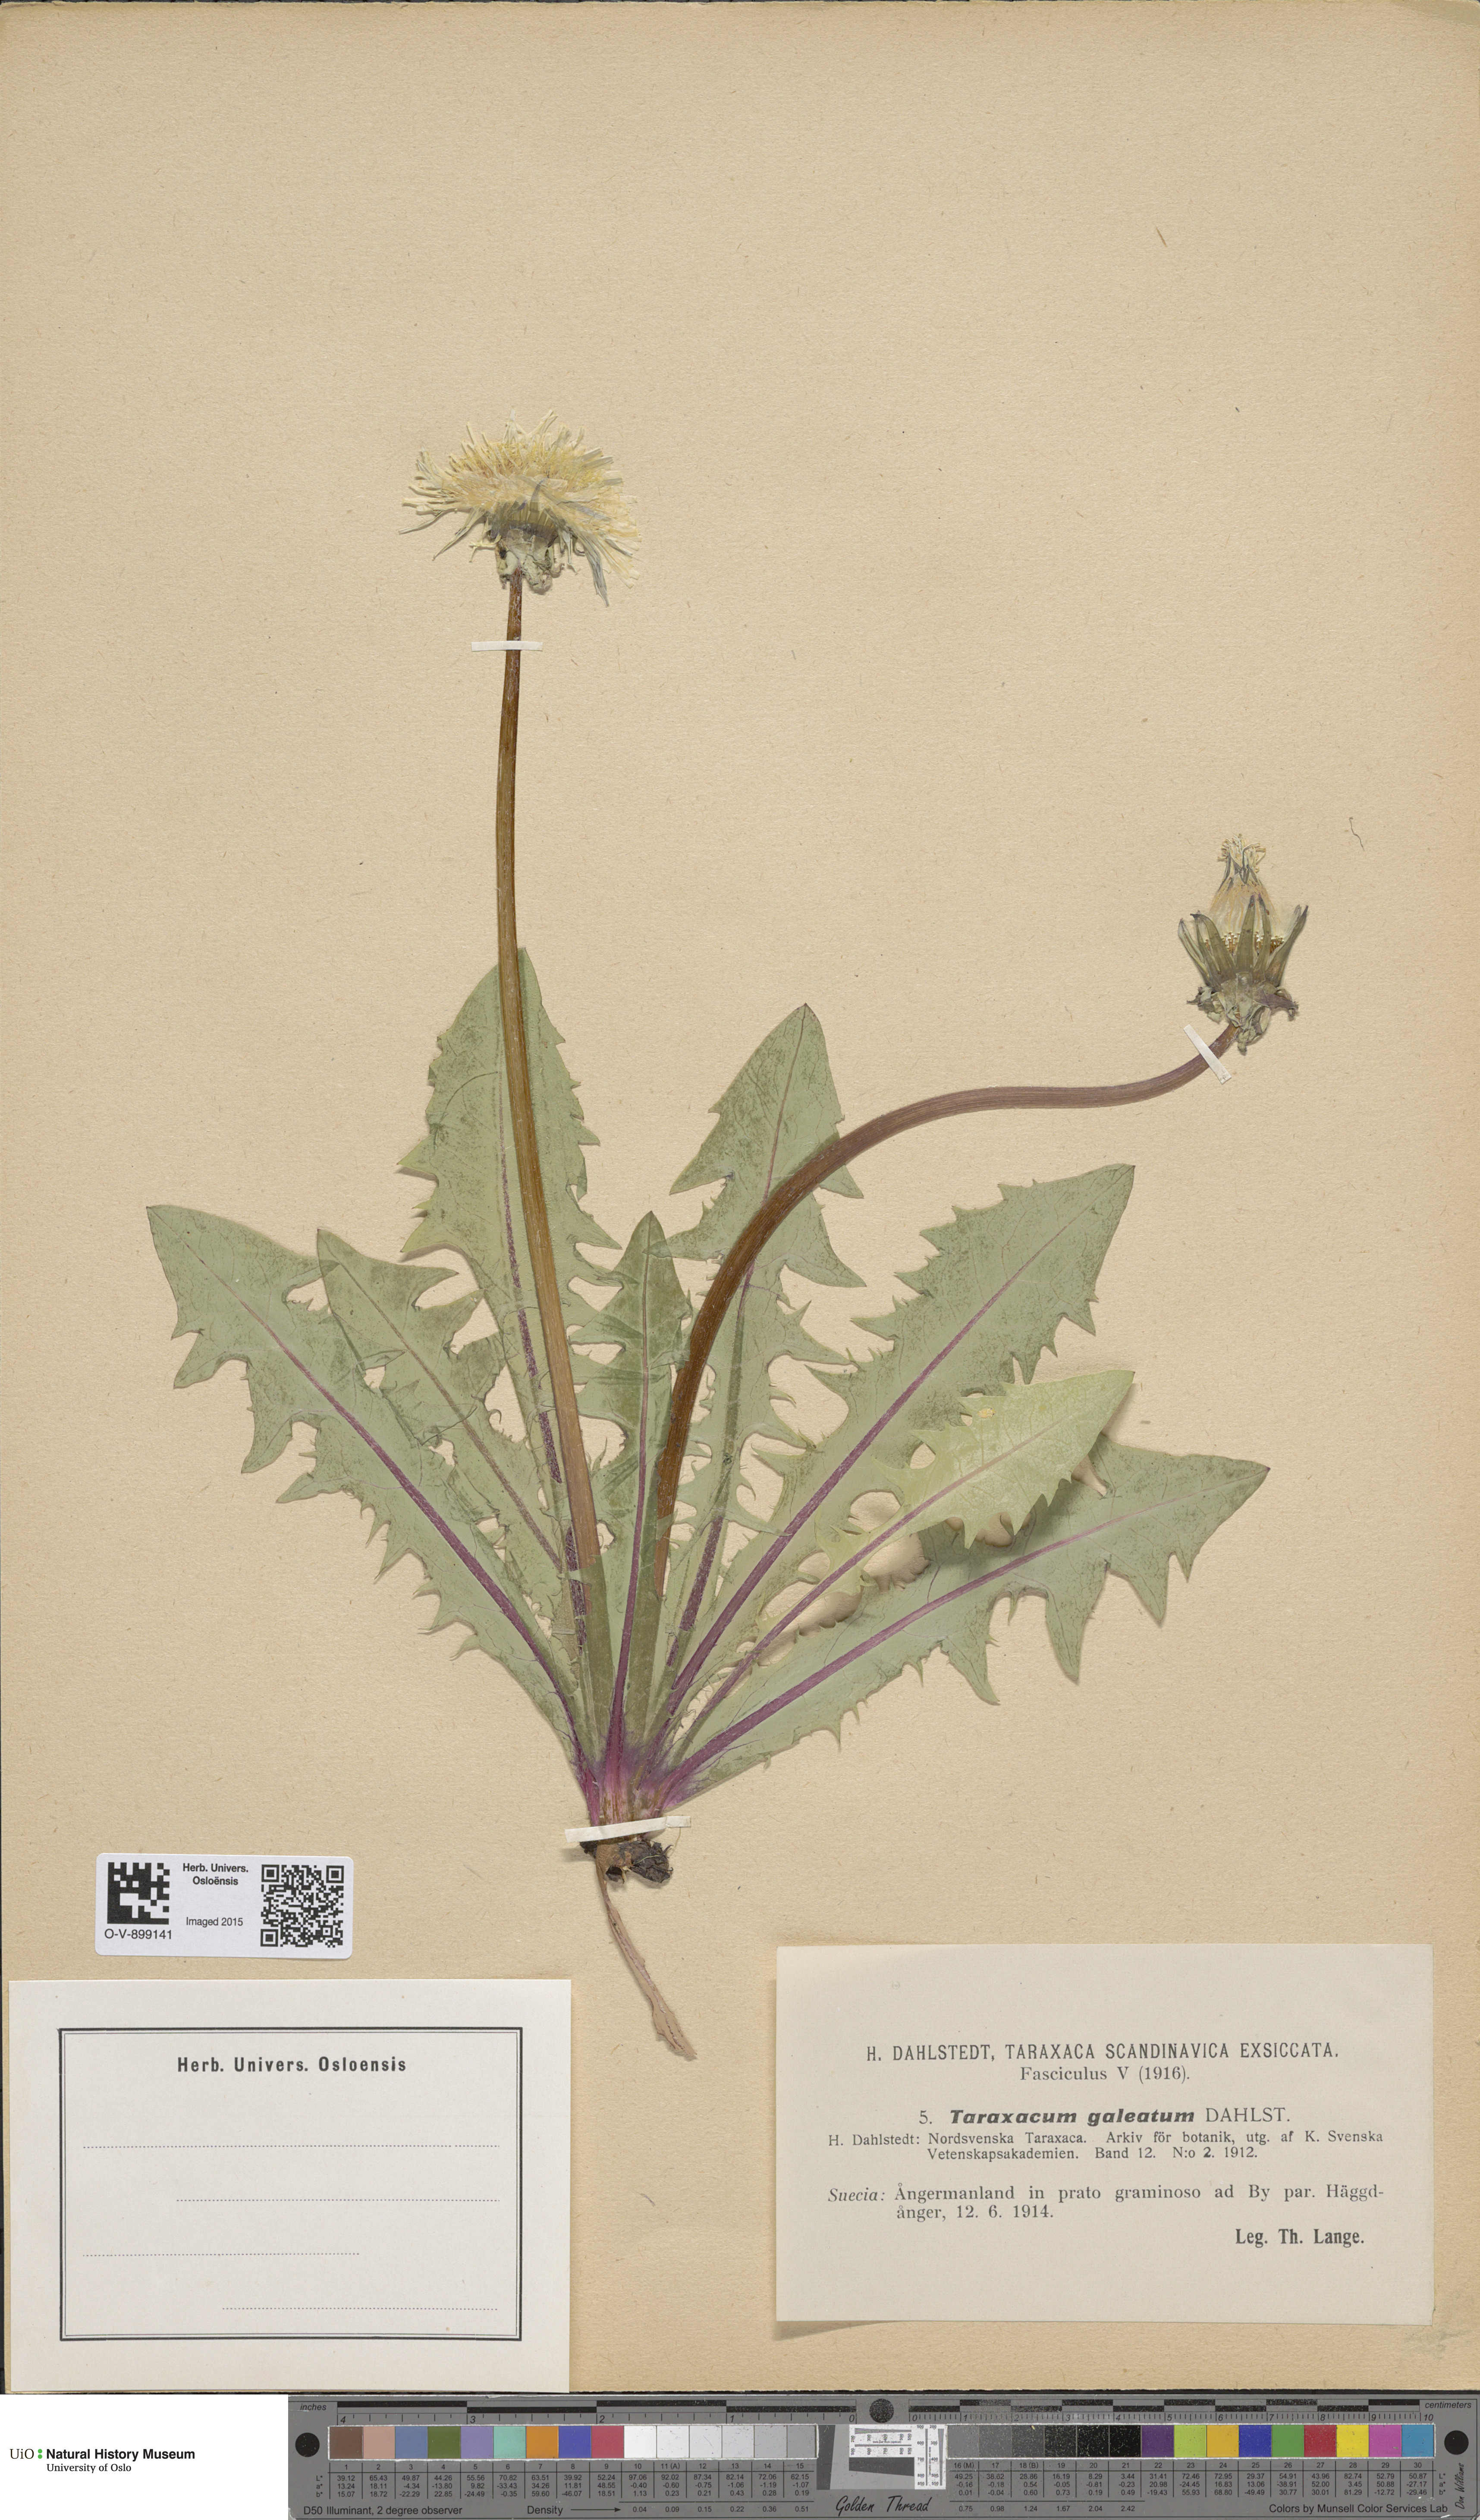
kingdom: Plantae
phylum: Tracheophyta
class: Magnoliopsida
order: Asterales
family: Asteraceae
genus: Taraxacum
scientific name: Taraxacum galeatum
